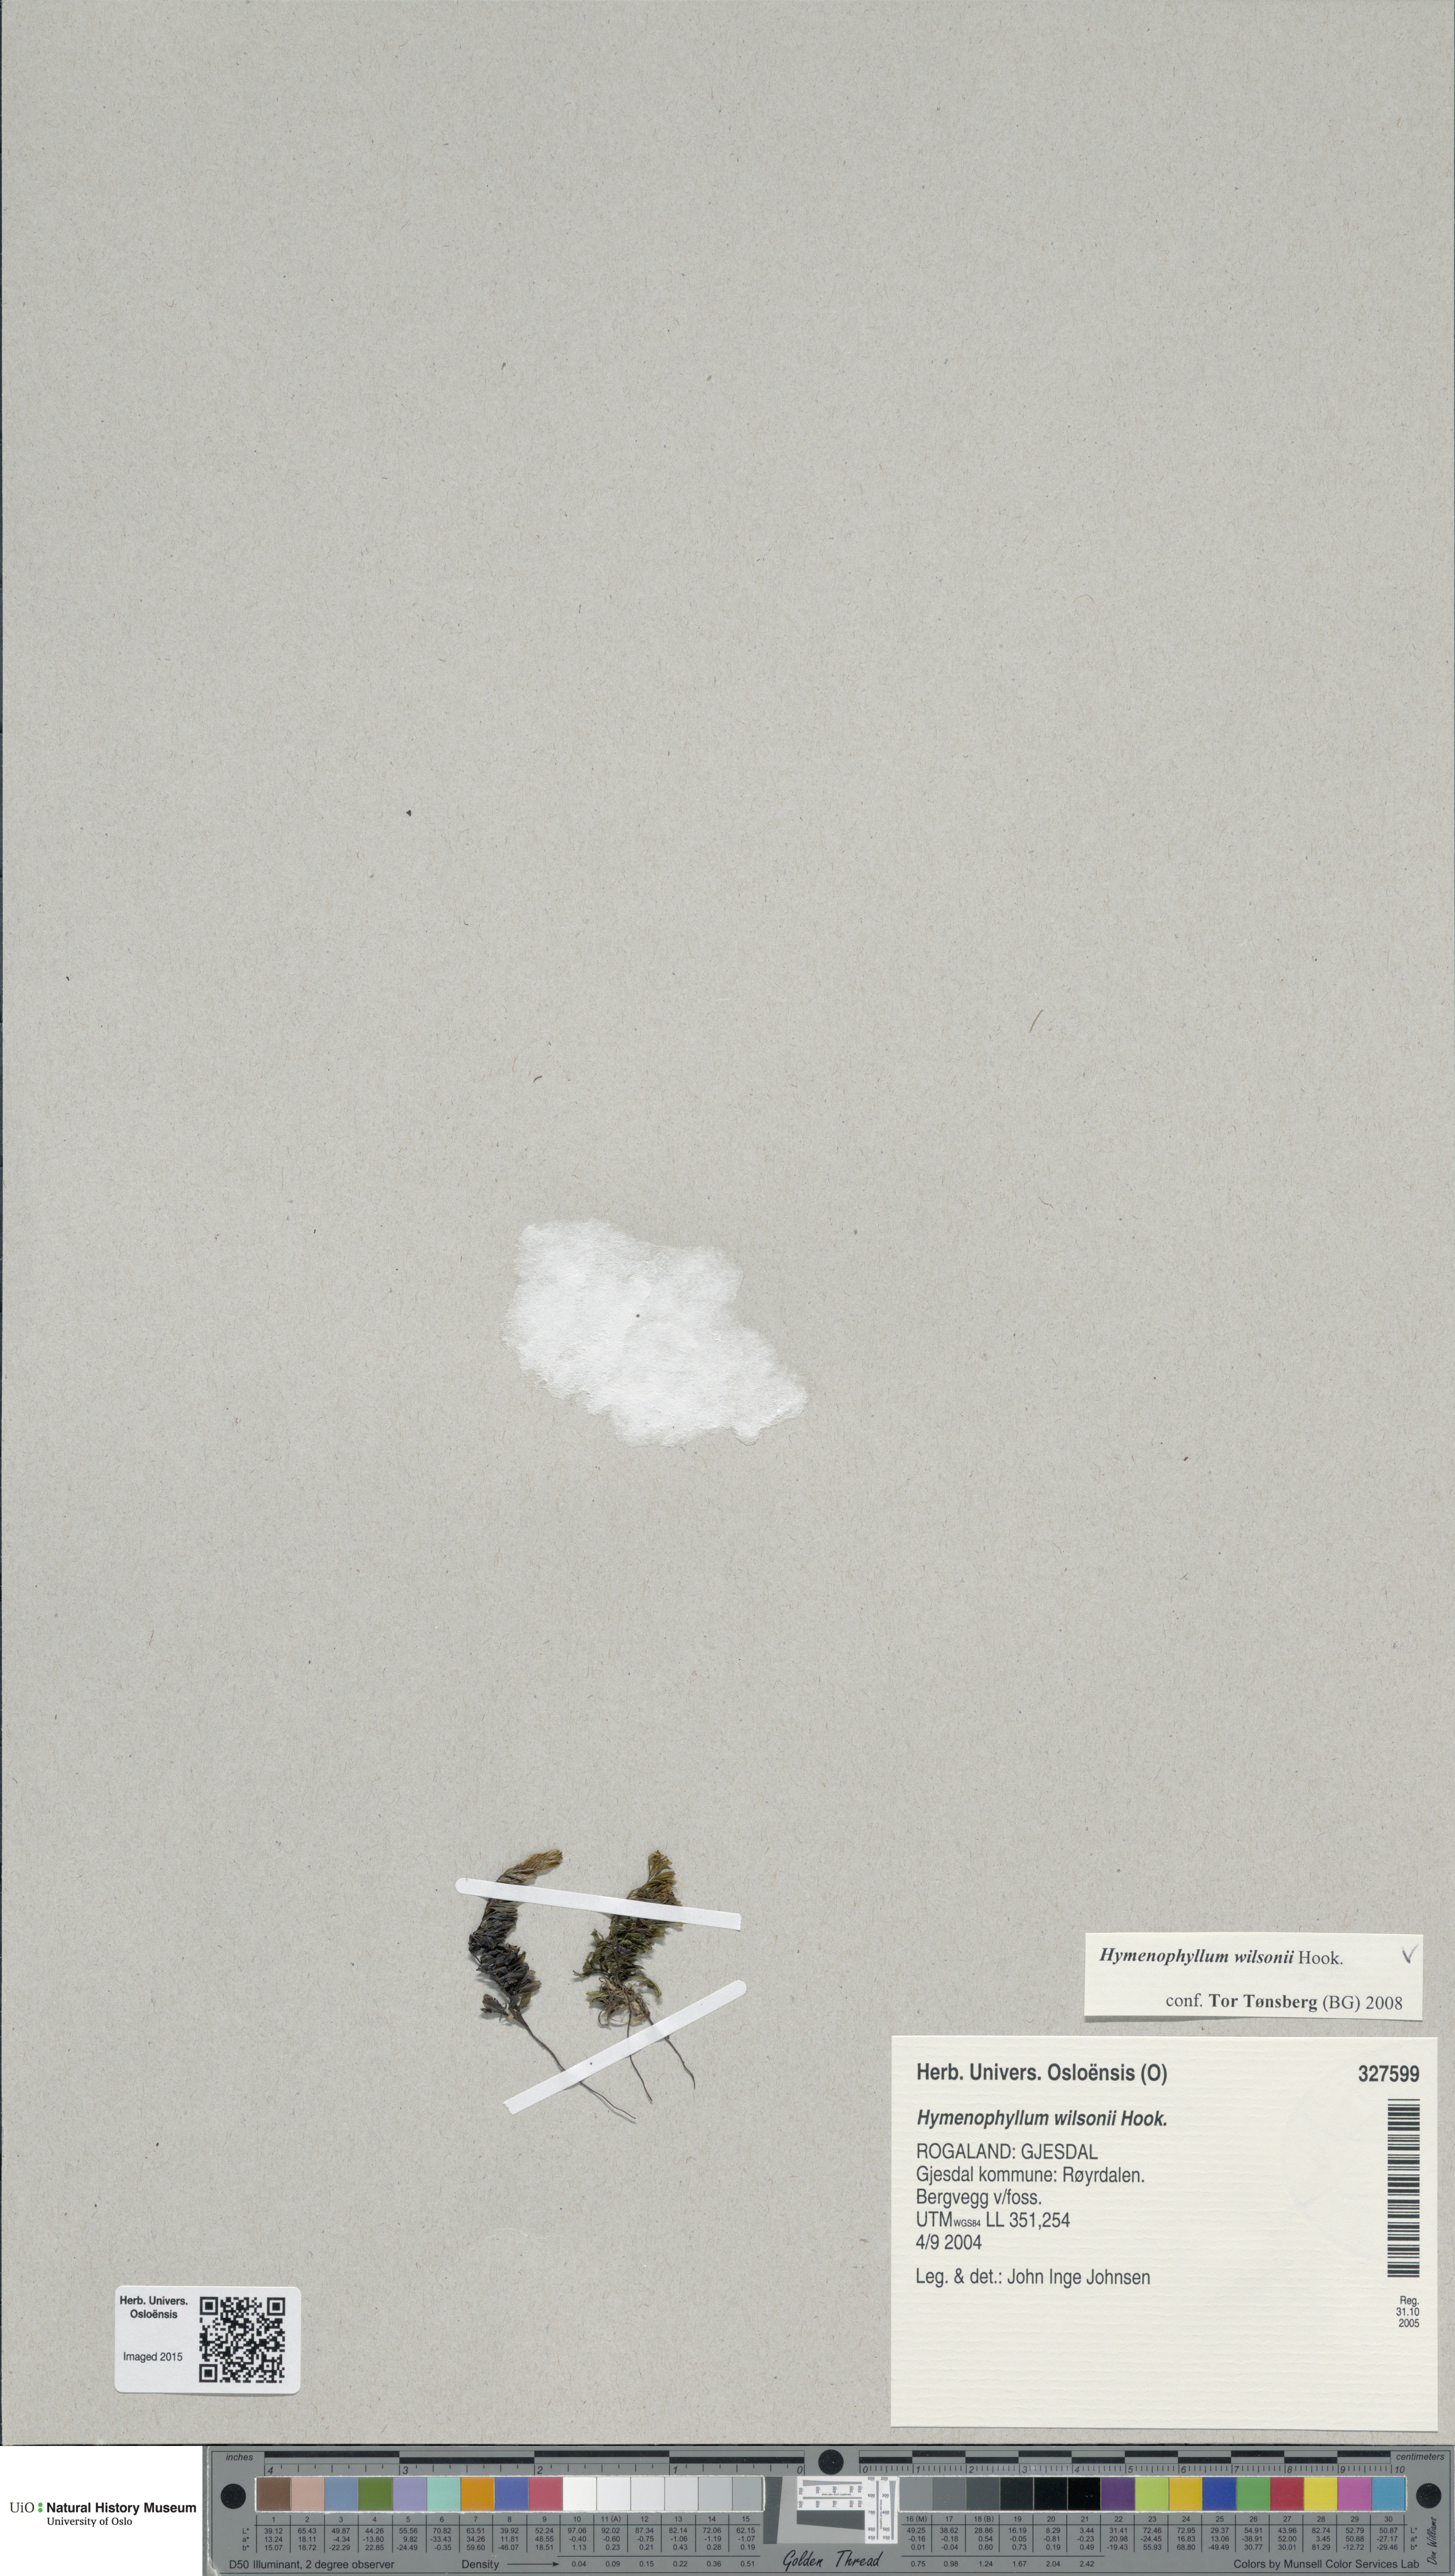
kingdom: Plantae
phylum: Tracheophyta
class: Polypodiopsida
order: Hymenophyllales
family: Hymenophyllaceae
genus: Hymenophyllum
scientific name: Hymenophyllum peltatum
